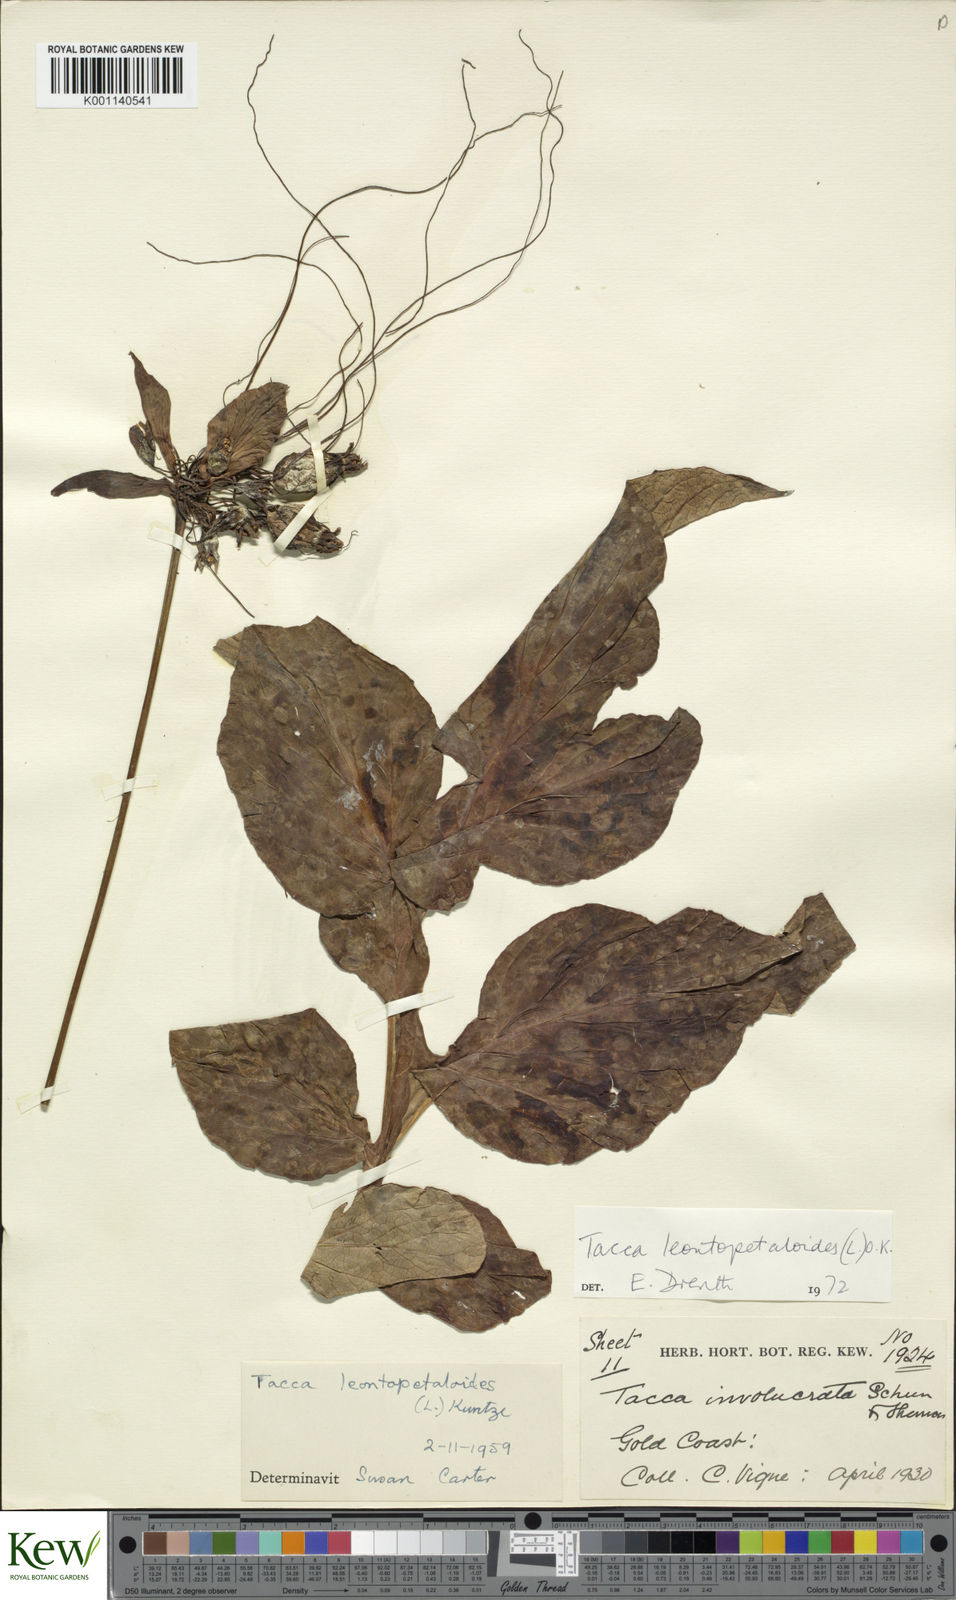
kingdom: Plantae
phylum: Tracheophyta
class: Liliopsida
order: Dioscoreales
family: Dioscoreaceae
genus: Tacca
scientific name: Tacca leontopetaloides
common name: Arrowroot
